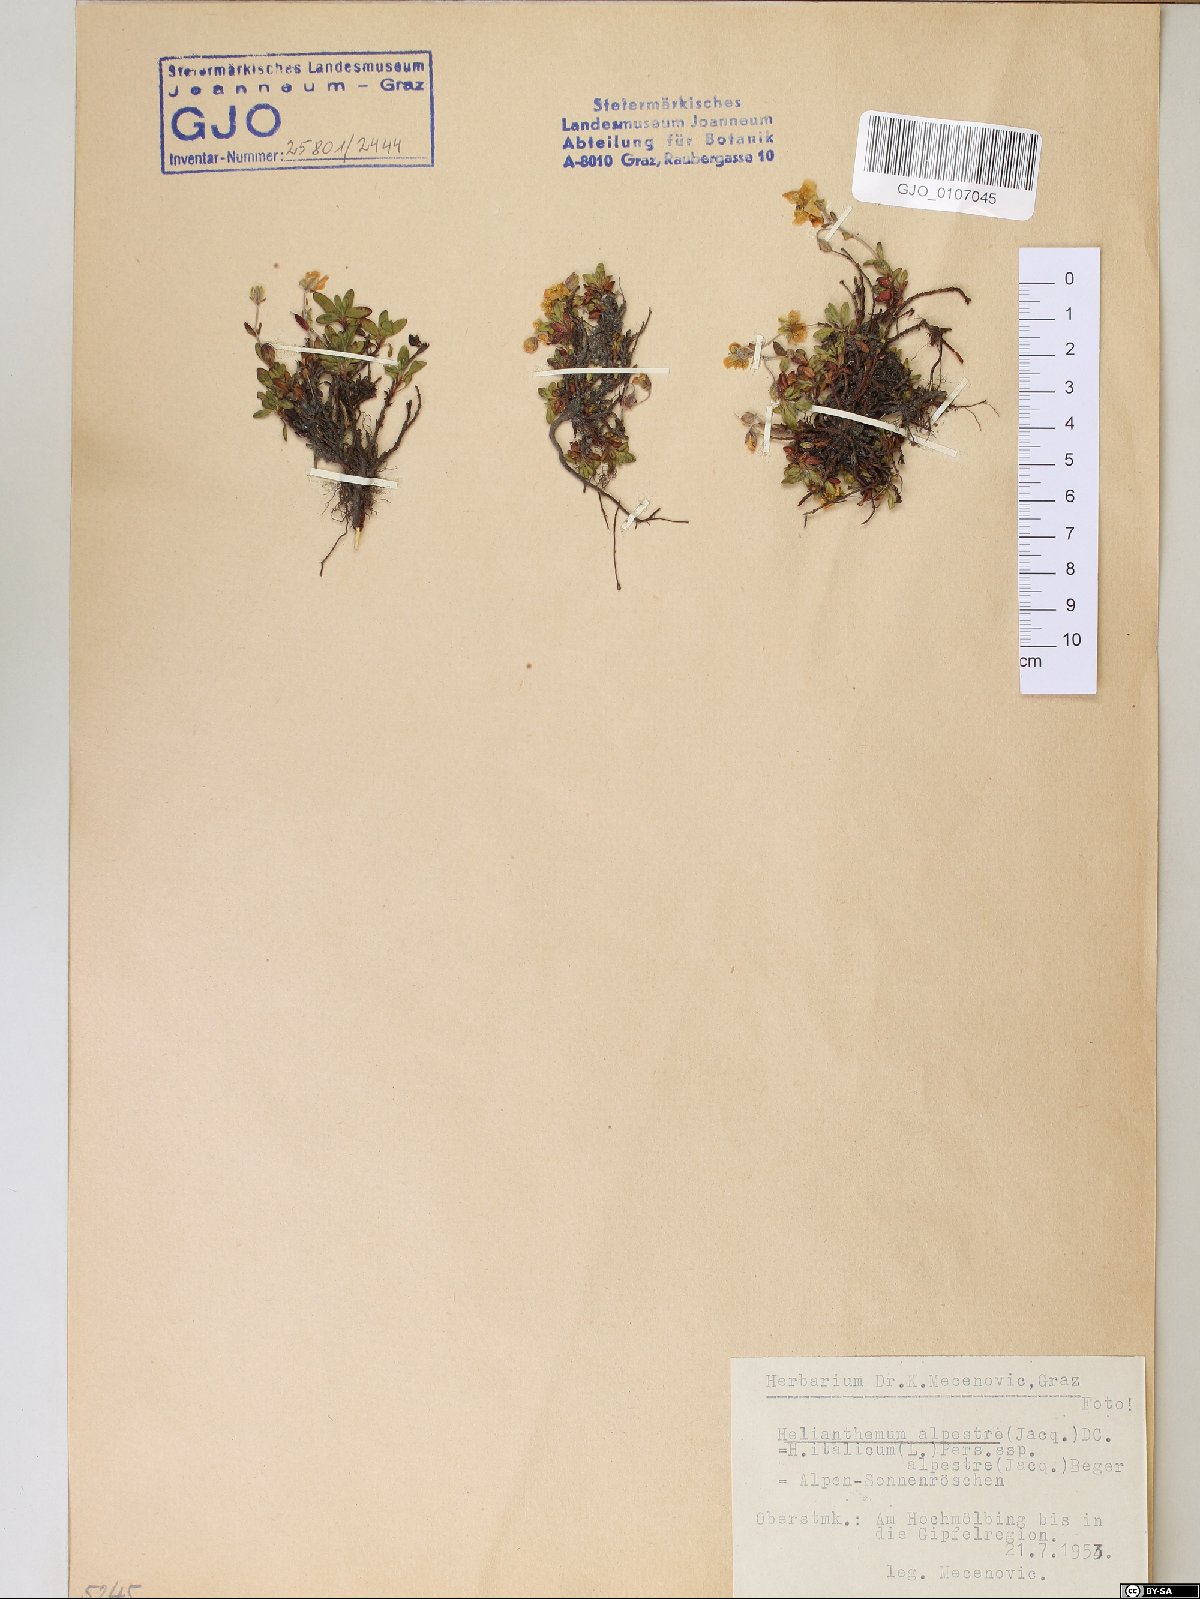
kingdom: Plantae
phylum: Tracheophyta
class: Magnoliopsida
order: Malvales
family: Cistaceae
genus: Helianthemum
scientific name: Helianthemum alpestre
